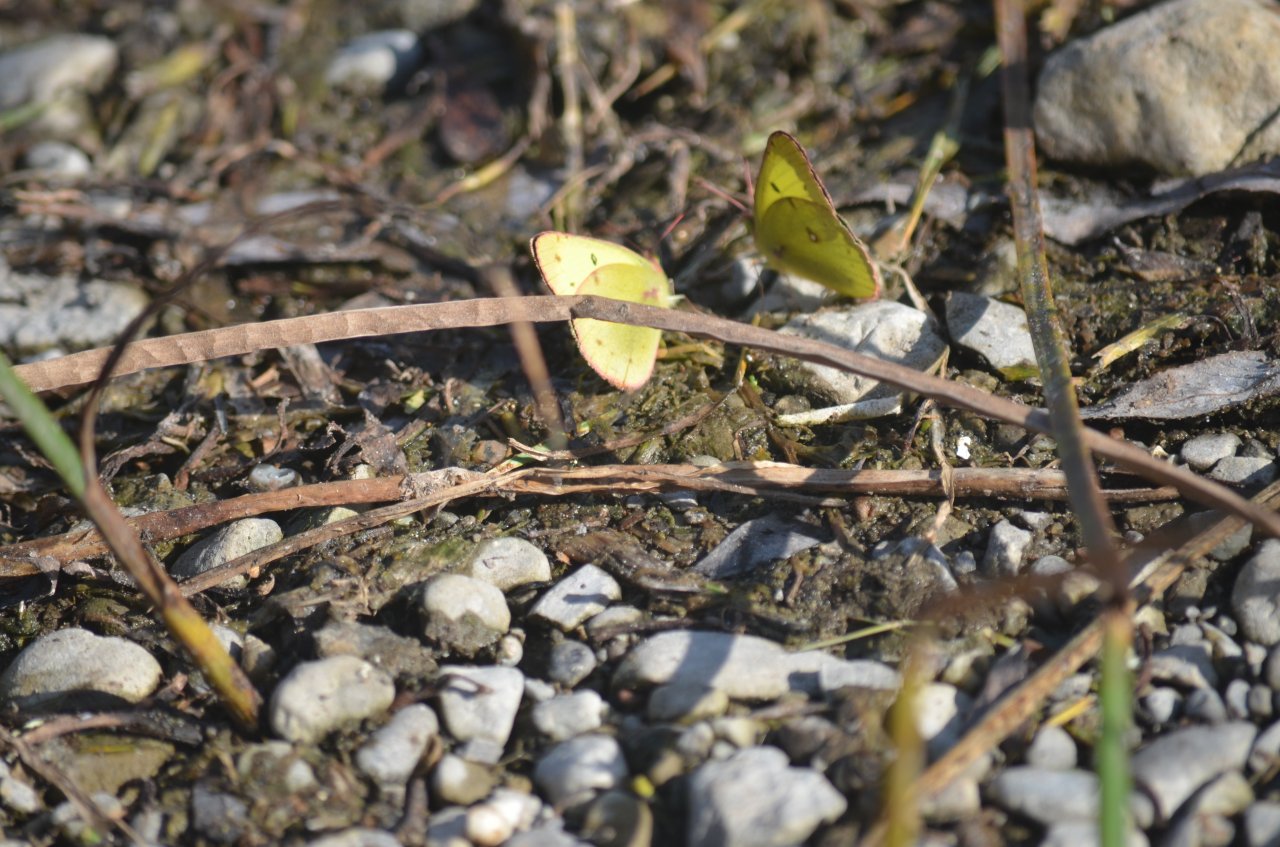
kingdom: Animalia
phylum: Arthropoda
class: Insecta
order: Lepidoptera
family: Pieridae
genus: Colias
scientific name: Colias philodice
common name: Clouded Sulphur
